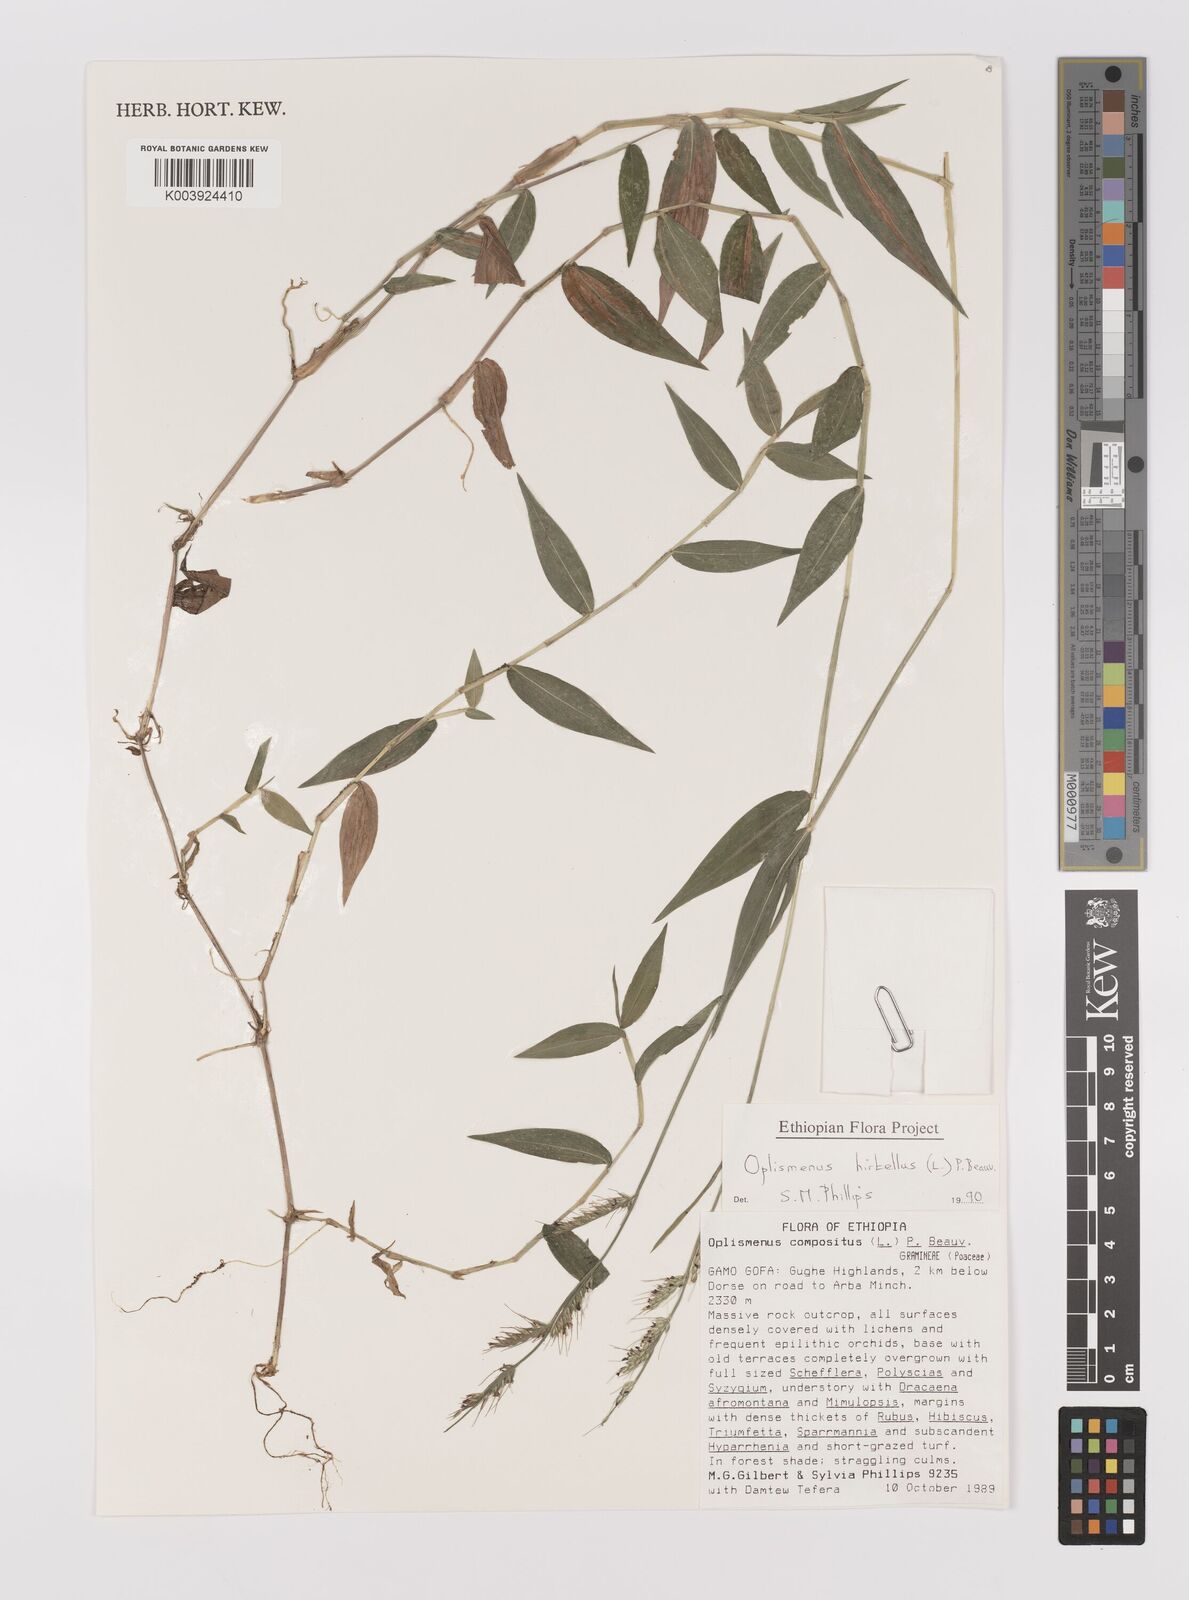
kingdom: Plantae
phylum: Tracheophyta
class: Liliopsida
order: Poales
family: Poaceae
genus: Oplismenus
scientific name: Oplismenus hirtellus
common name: Basketgrass
